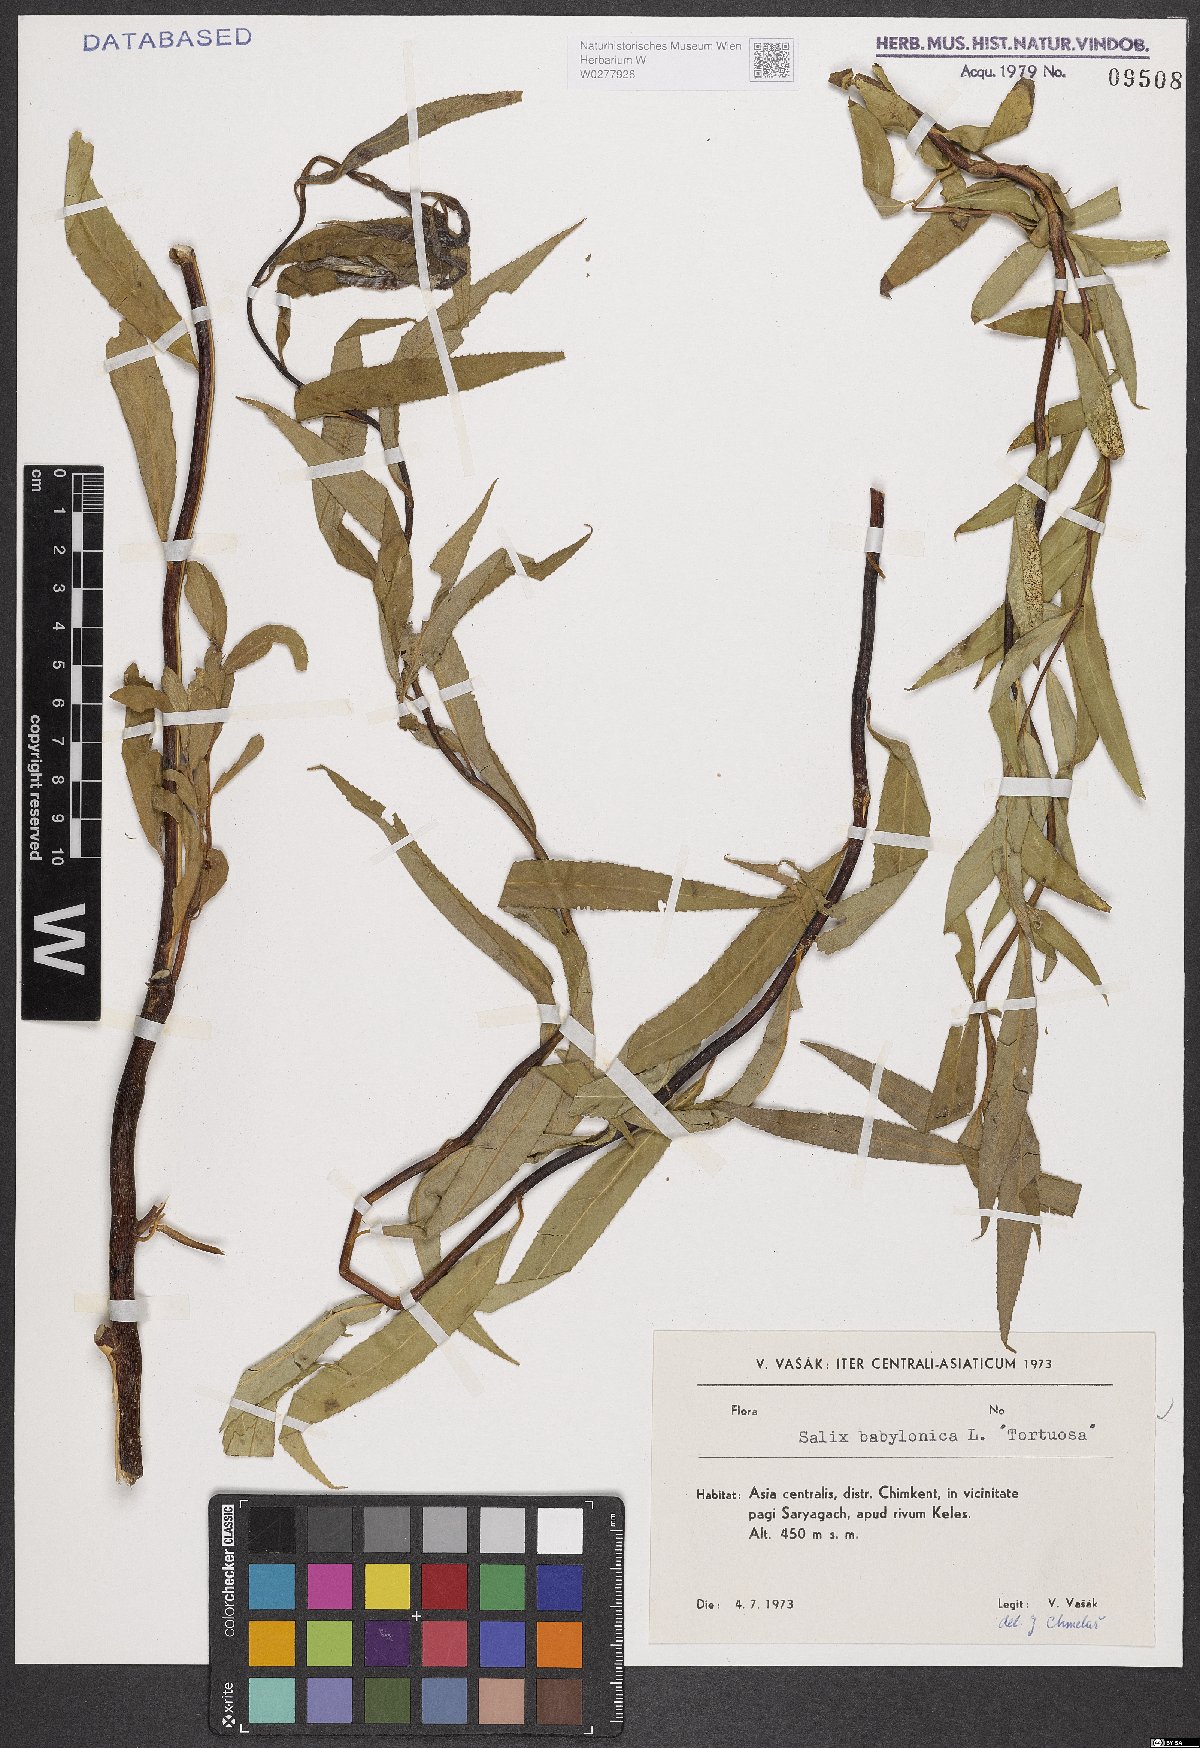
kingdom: Plantae
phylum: Tracheophyta
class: Magnoliopsida
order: Malpighiales
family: Salicaceae
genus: Salix
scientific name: Salix babylonica
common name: Weeping willow
